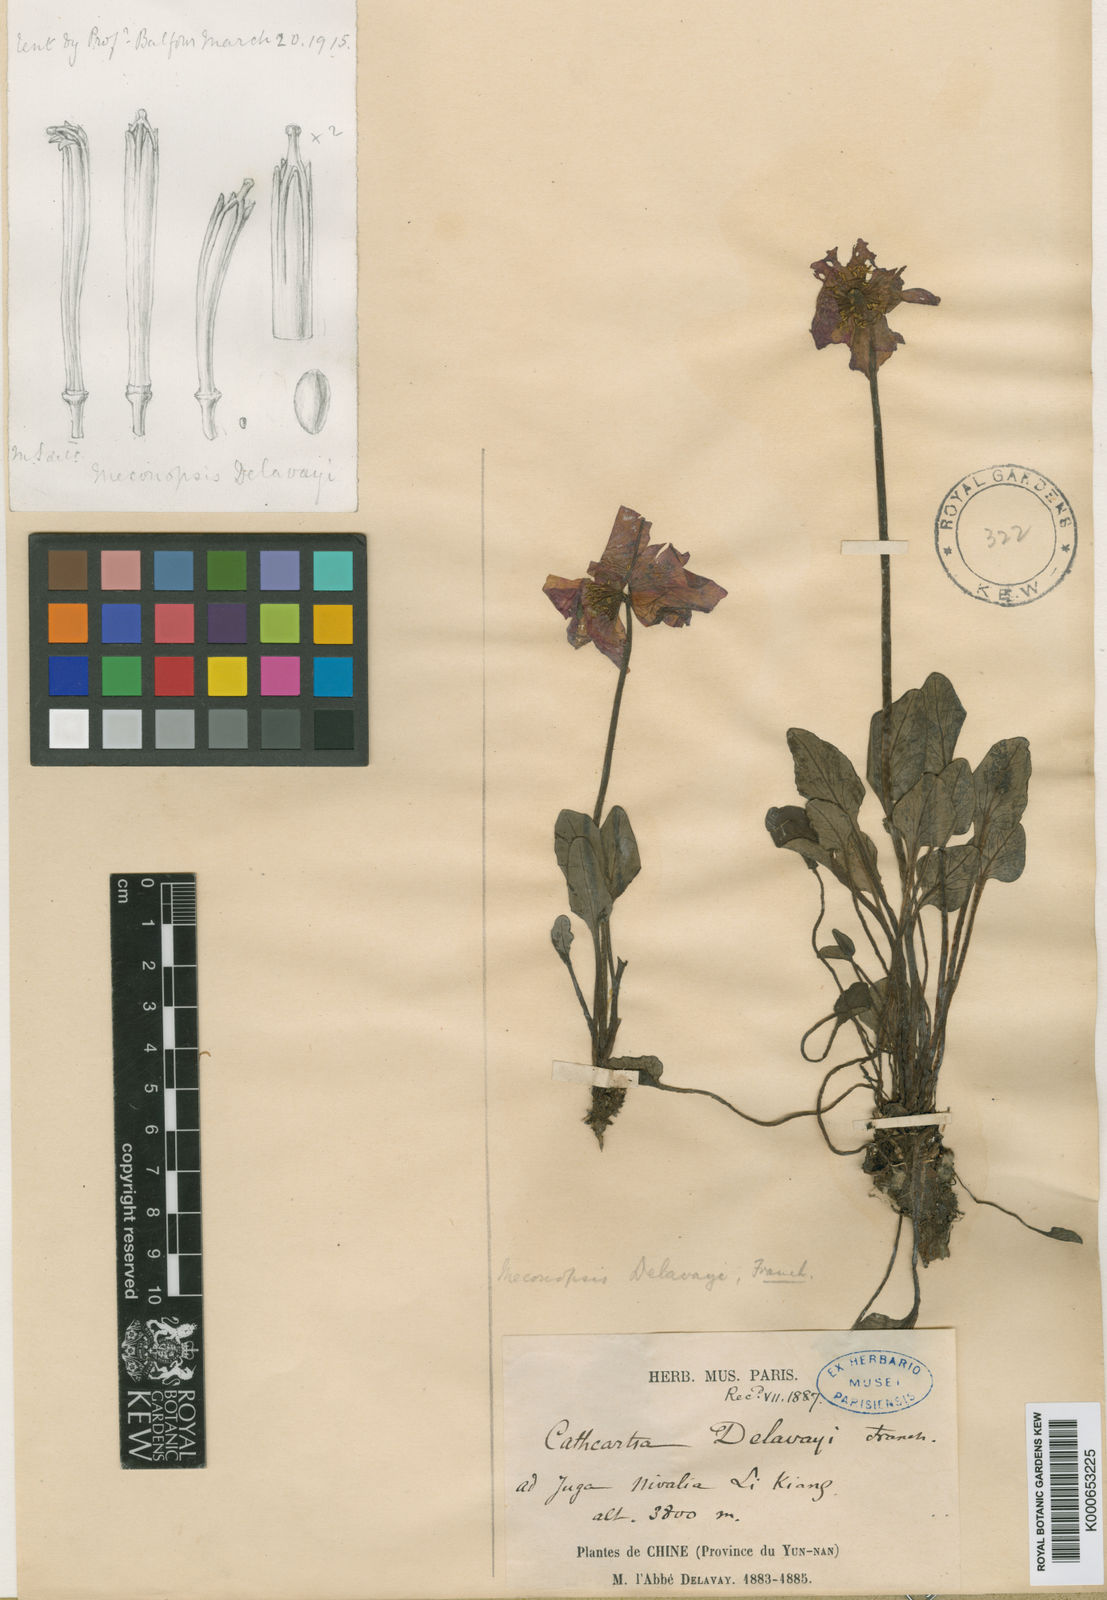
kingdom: Plantae
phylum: Tracheophyta
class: Magnoliopsida
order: Ranunculales
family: Papaveraceae
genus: Meconopsis
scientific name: Meconopsis henrici
